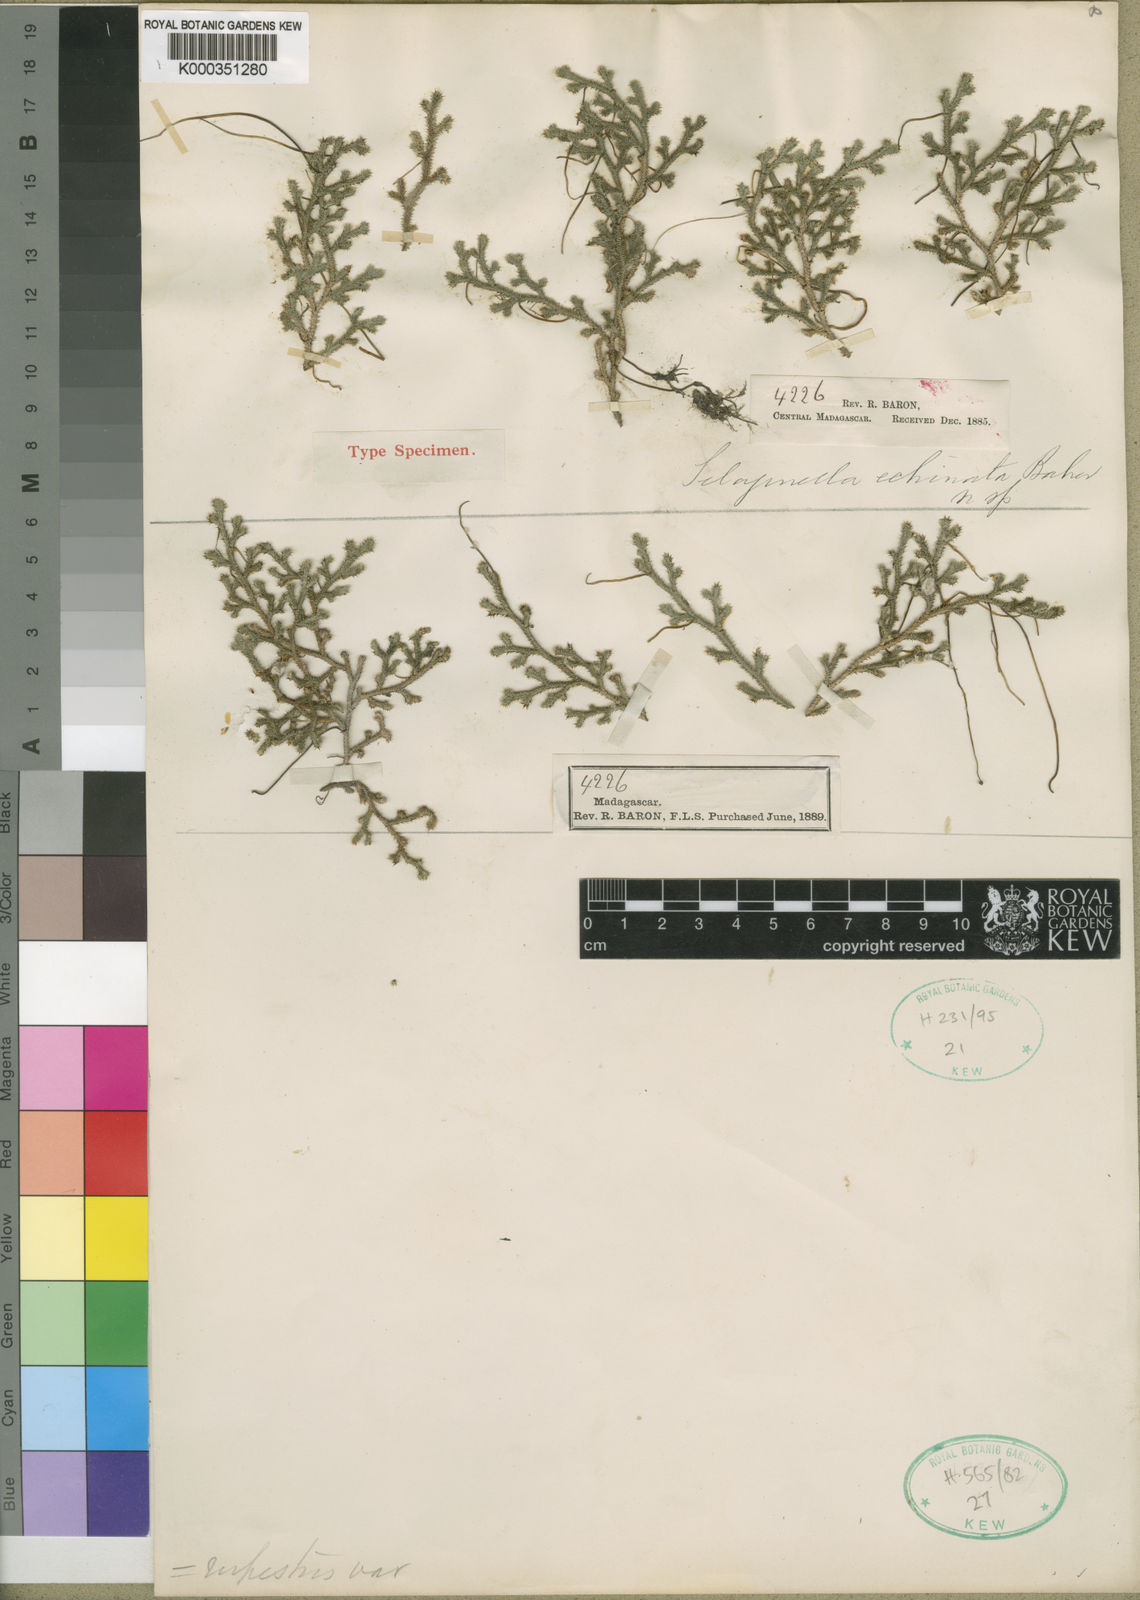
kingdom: Plantae
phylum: Tracheophyta
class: Lycopodiopsida
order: Selaginellales
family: Selaginellaceae
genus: Selaginella
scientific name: Selaginella echinata
